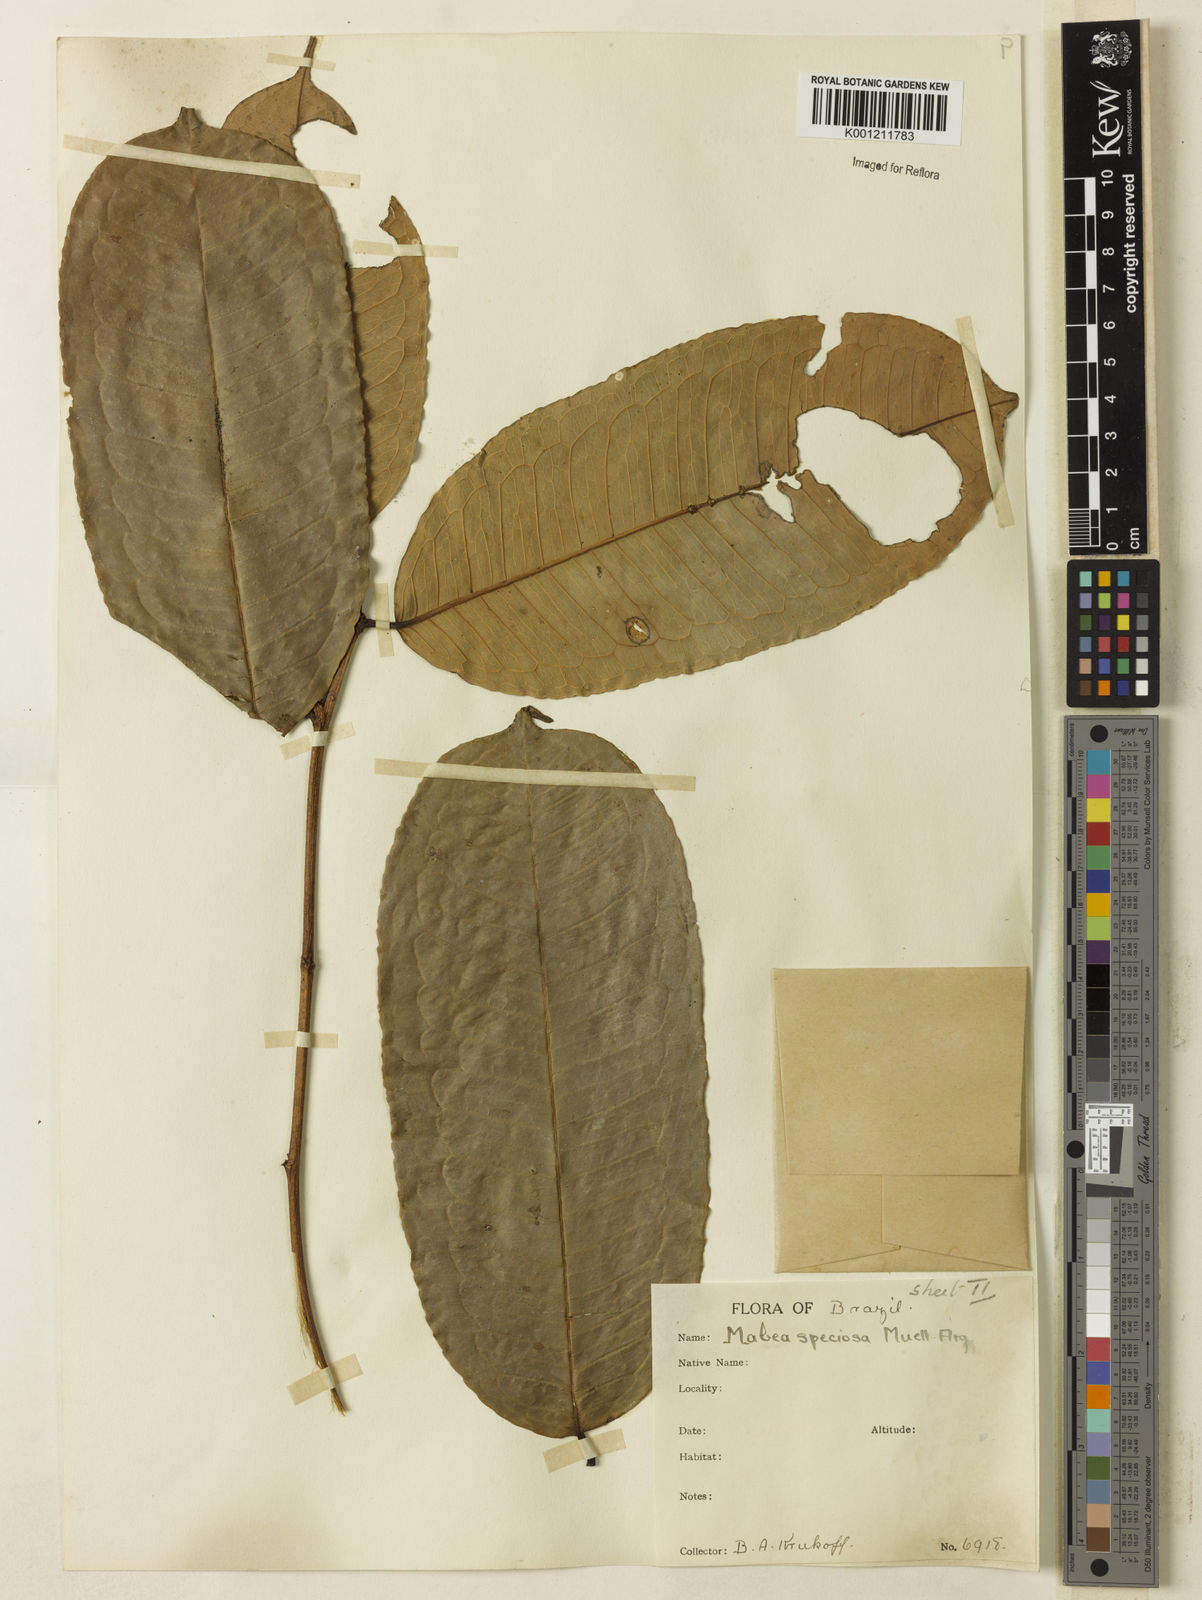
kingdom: Plantae
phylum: Tracheophyta
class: Magnoliopsida
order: Malpighiales
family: Euphorbiaceae
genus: Mabea
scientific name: Mabea
